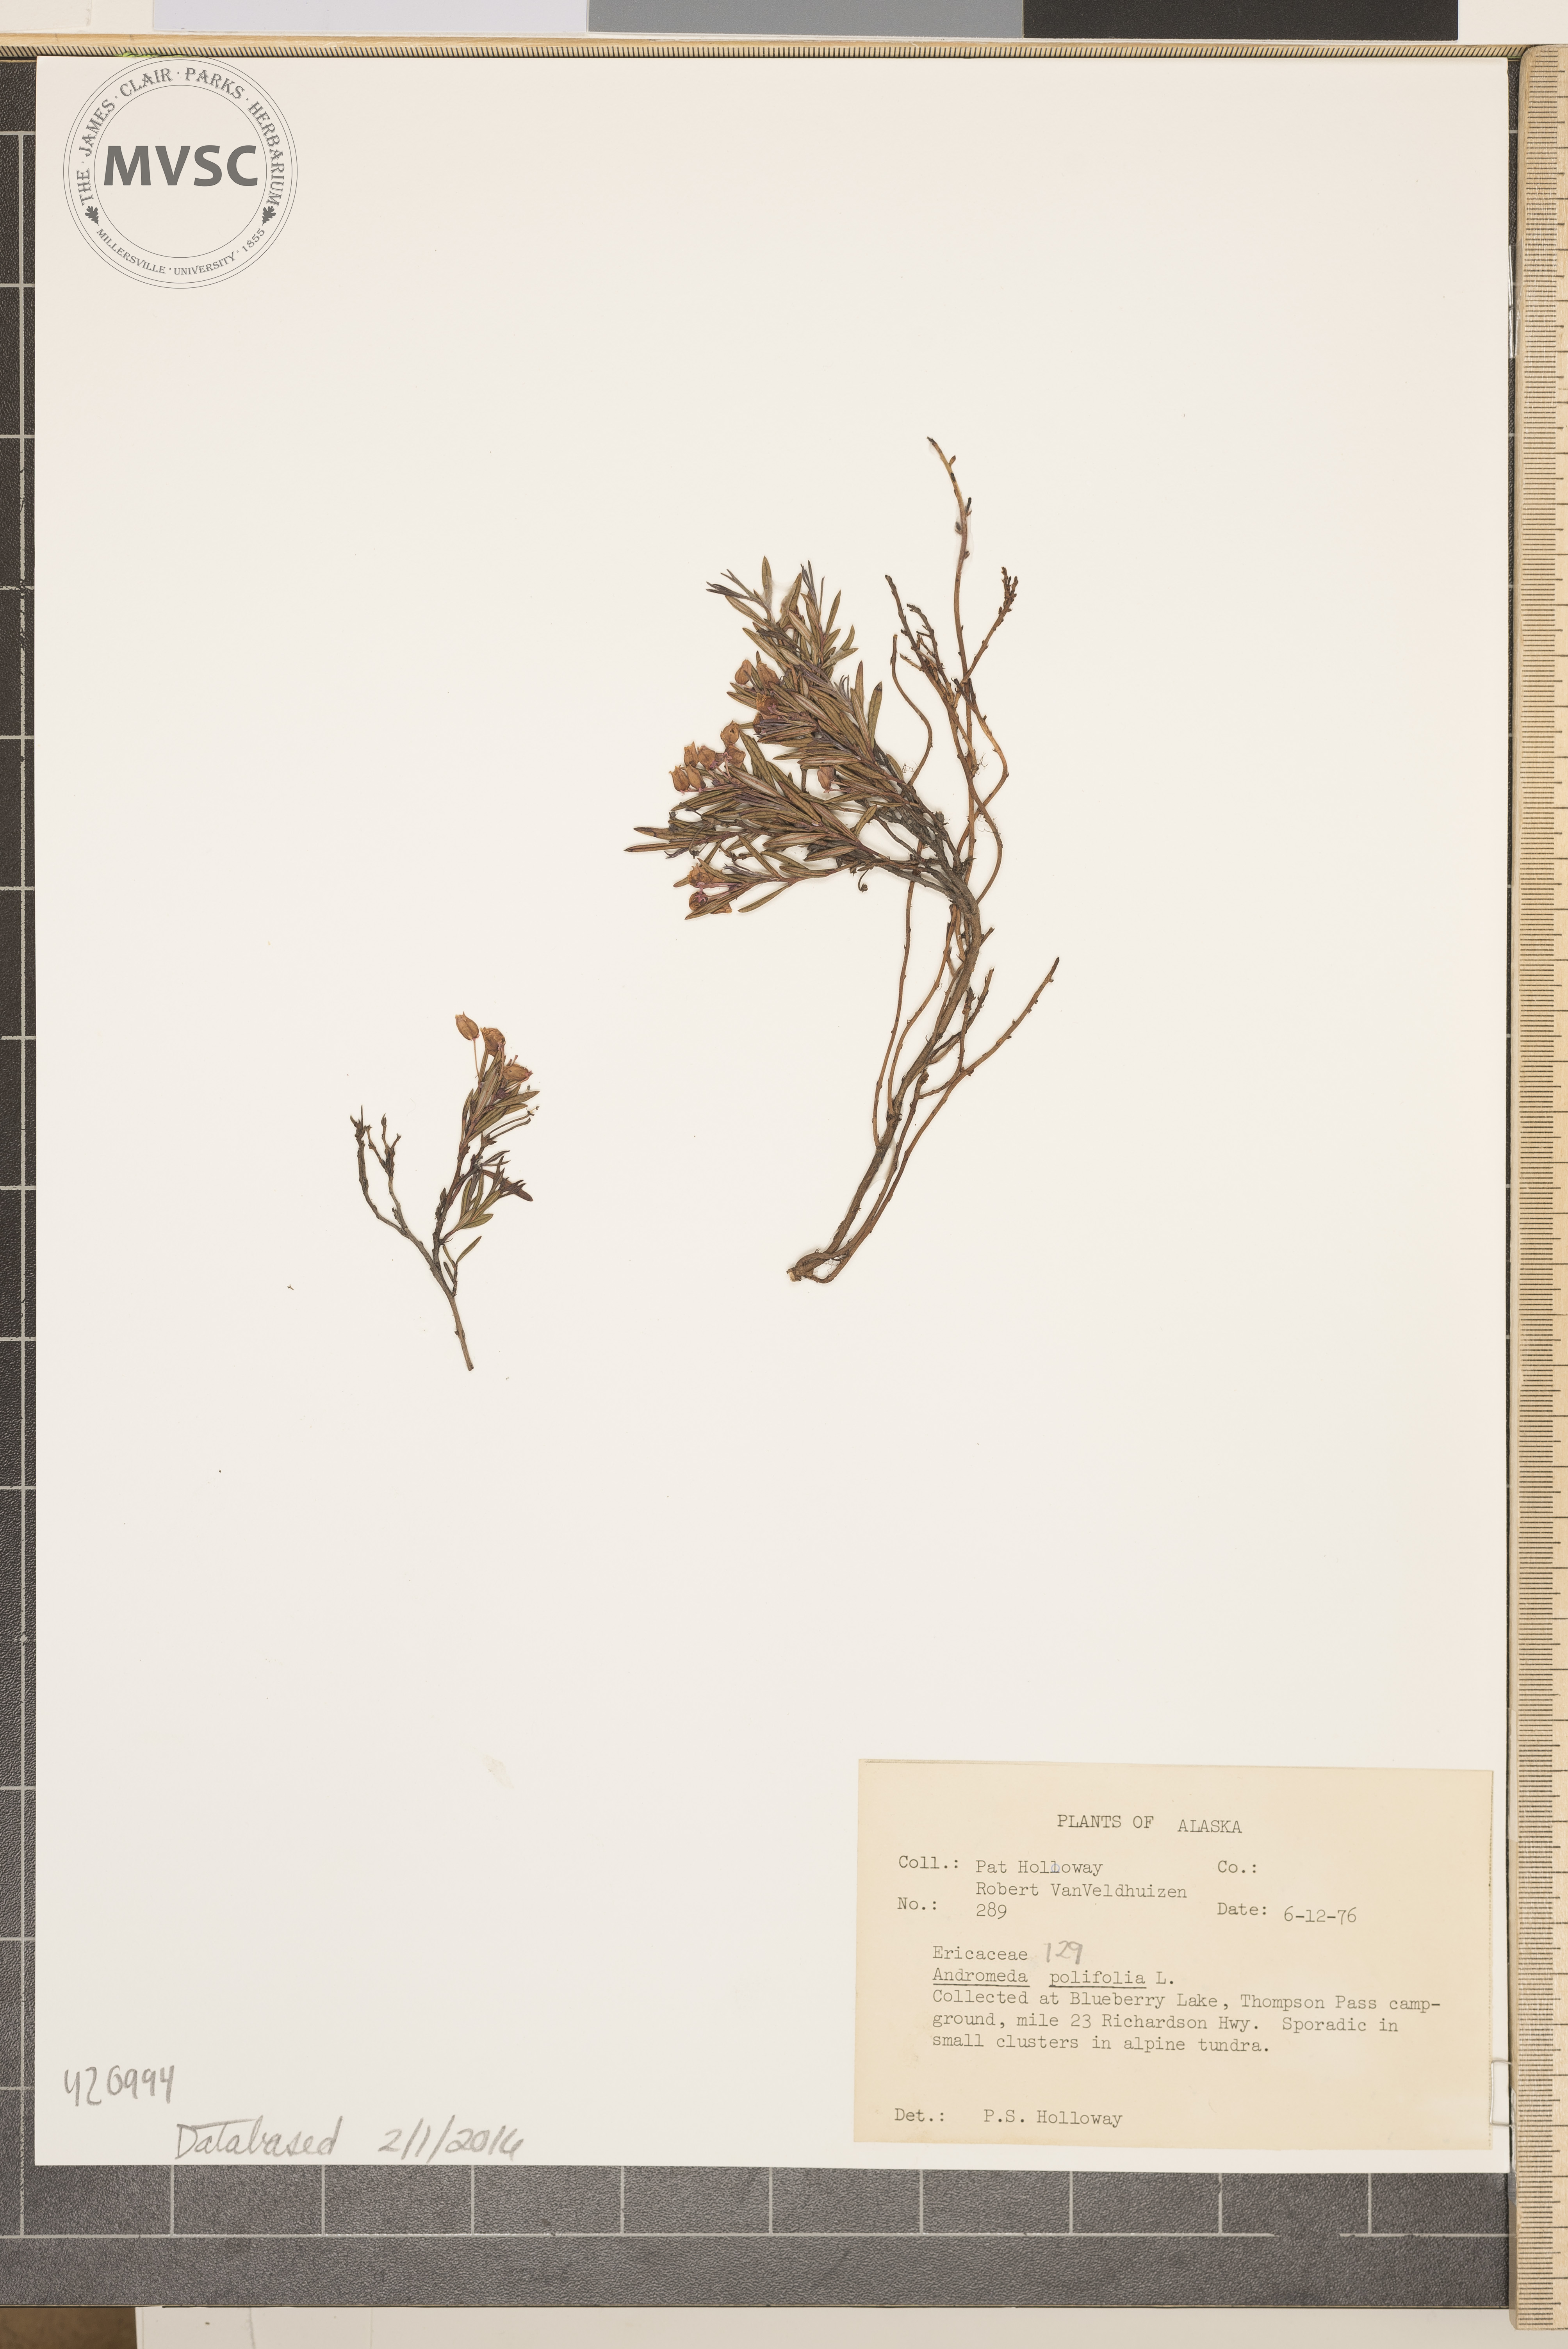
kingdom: Plantae
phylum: Tracheophyta
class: Magnoliopsida
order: Ericales
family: Ericaceae
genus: Andromeda
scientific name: Andromeda polifolia
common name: Bog-rosemary
